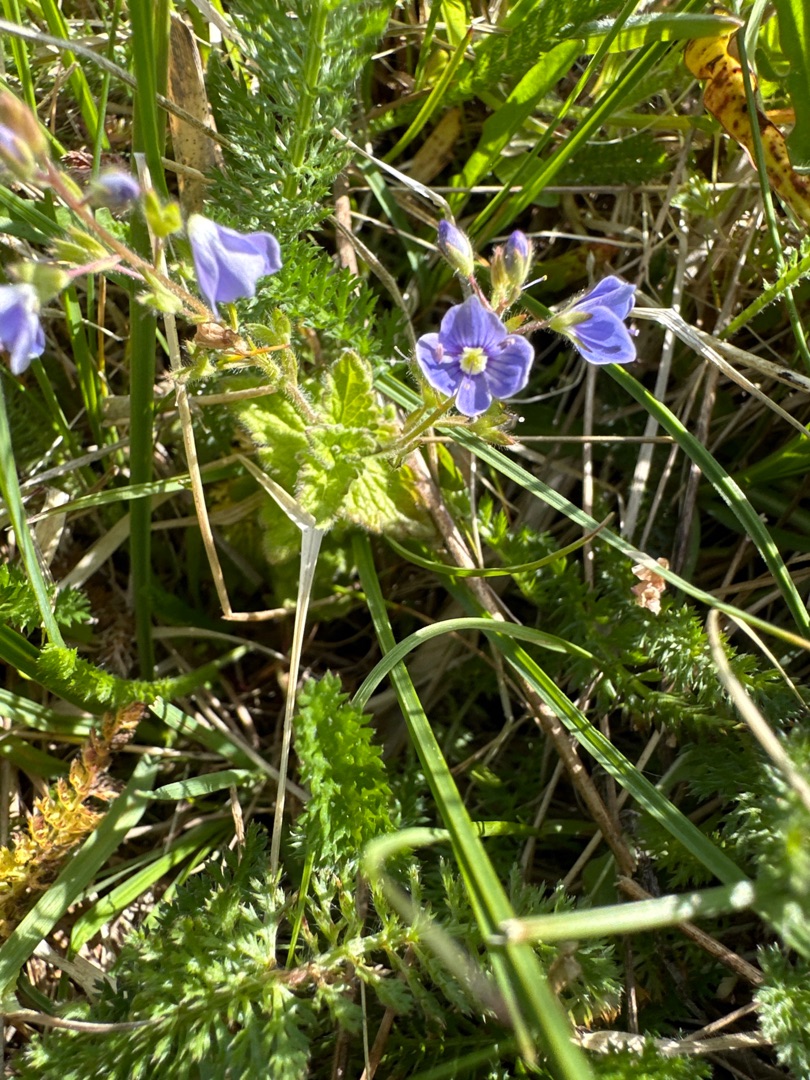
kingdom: Plantae
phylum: Tracheophyta
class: Magnoliopsida
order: Lamiales
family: Plantaginaceae
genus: Veronica
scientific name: Veronica chamaedrys
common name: Tveskægget ærenpris
